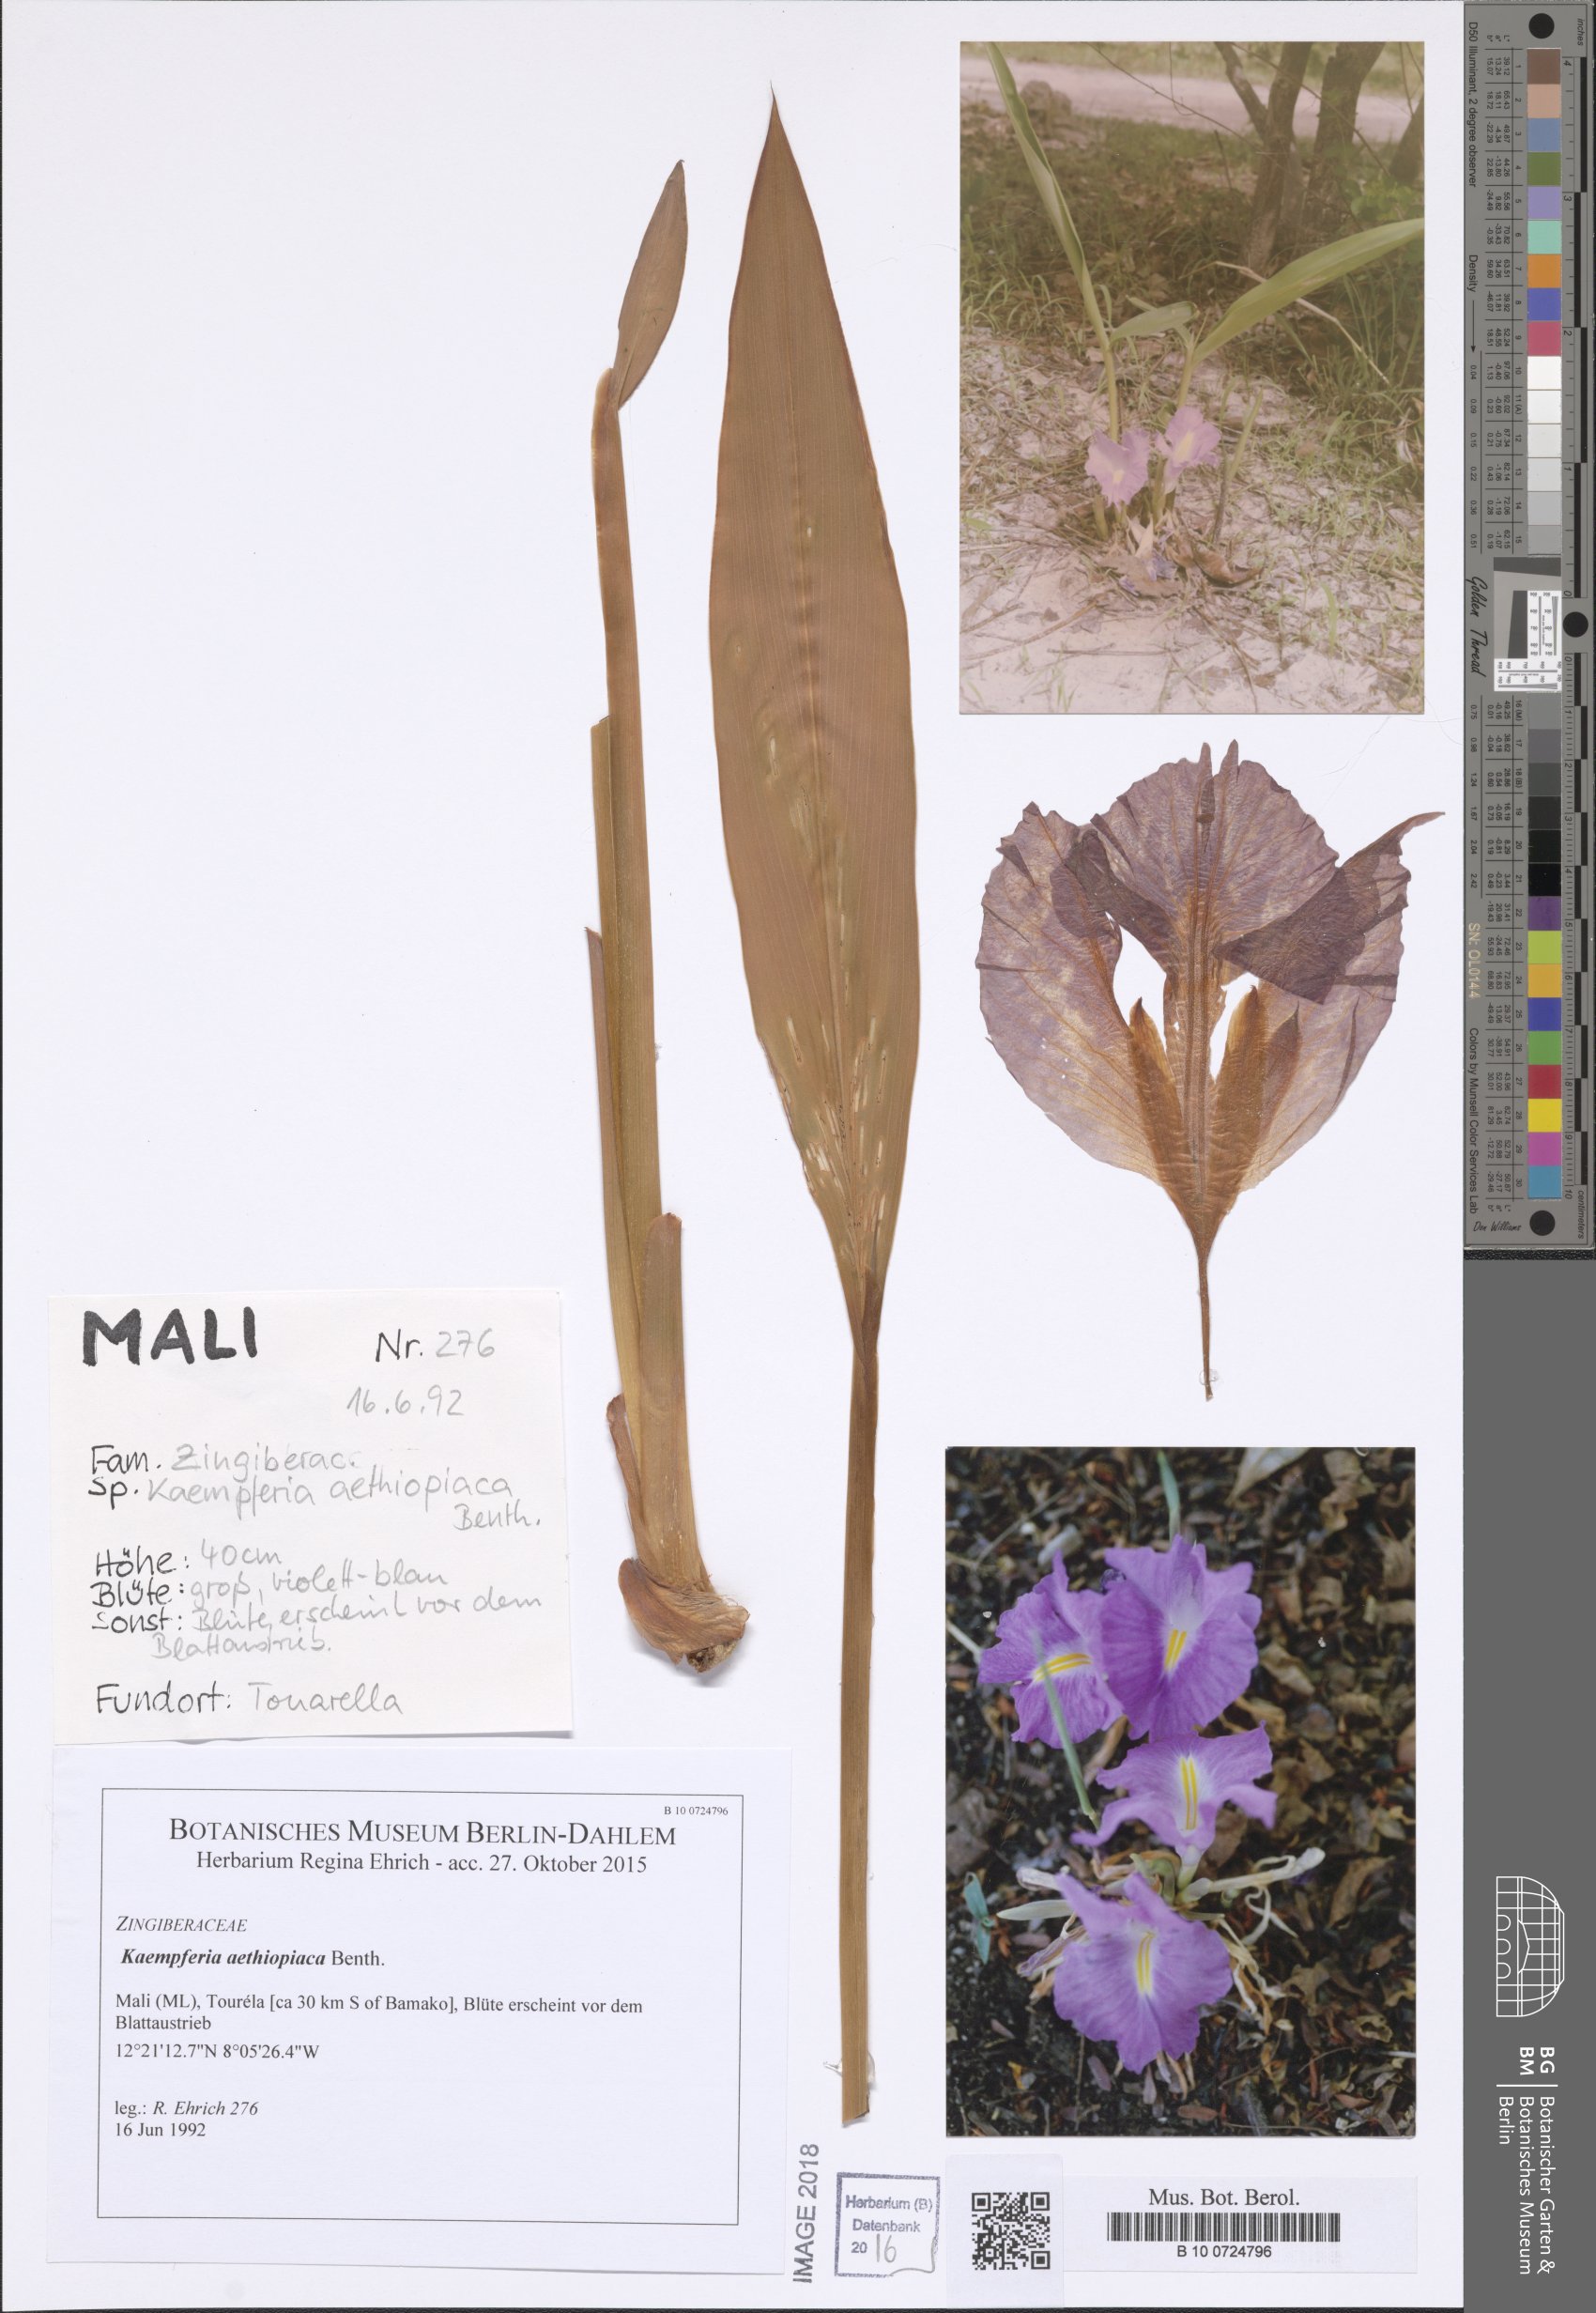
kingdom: Plantae
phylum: Tracheophyta
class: Liliopsida
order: Zingiberales
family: Zingiberaceae
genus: Siphonochilus
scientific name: Siphonochilus aethiopicus
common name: African-ginger
